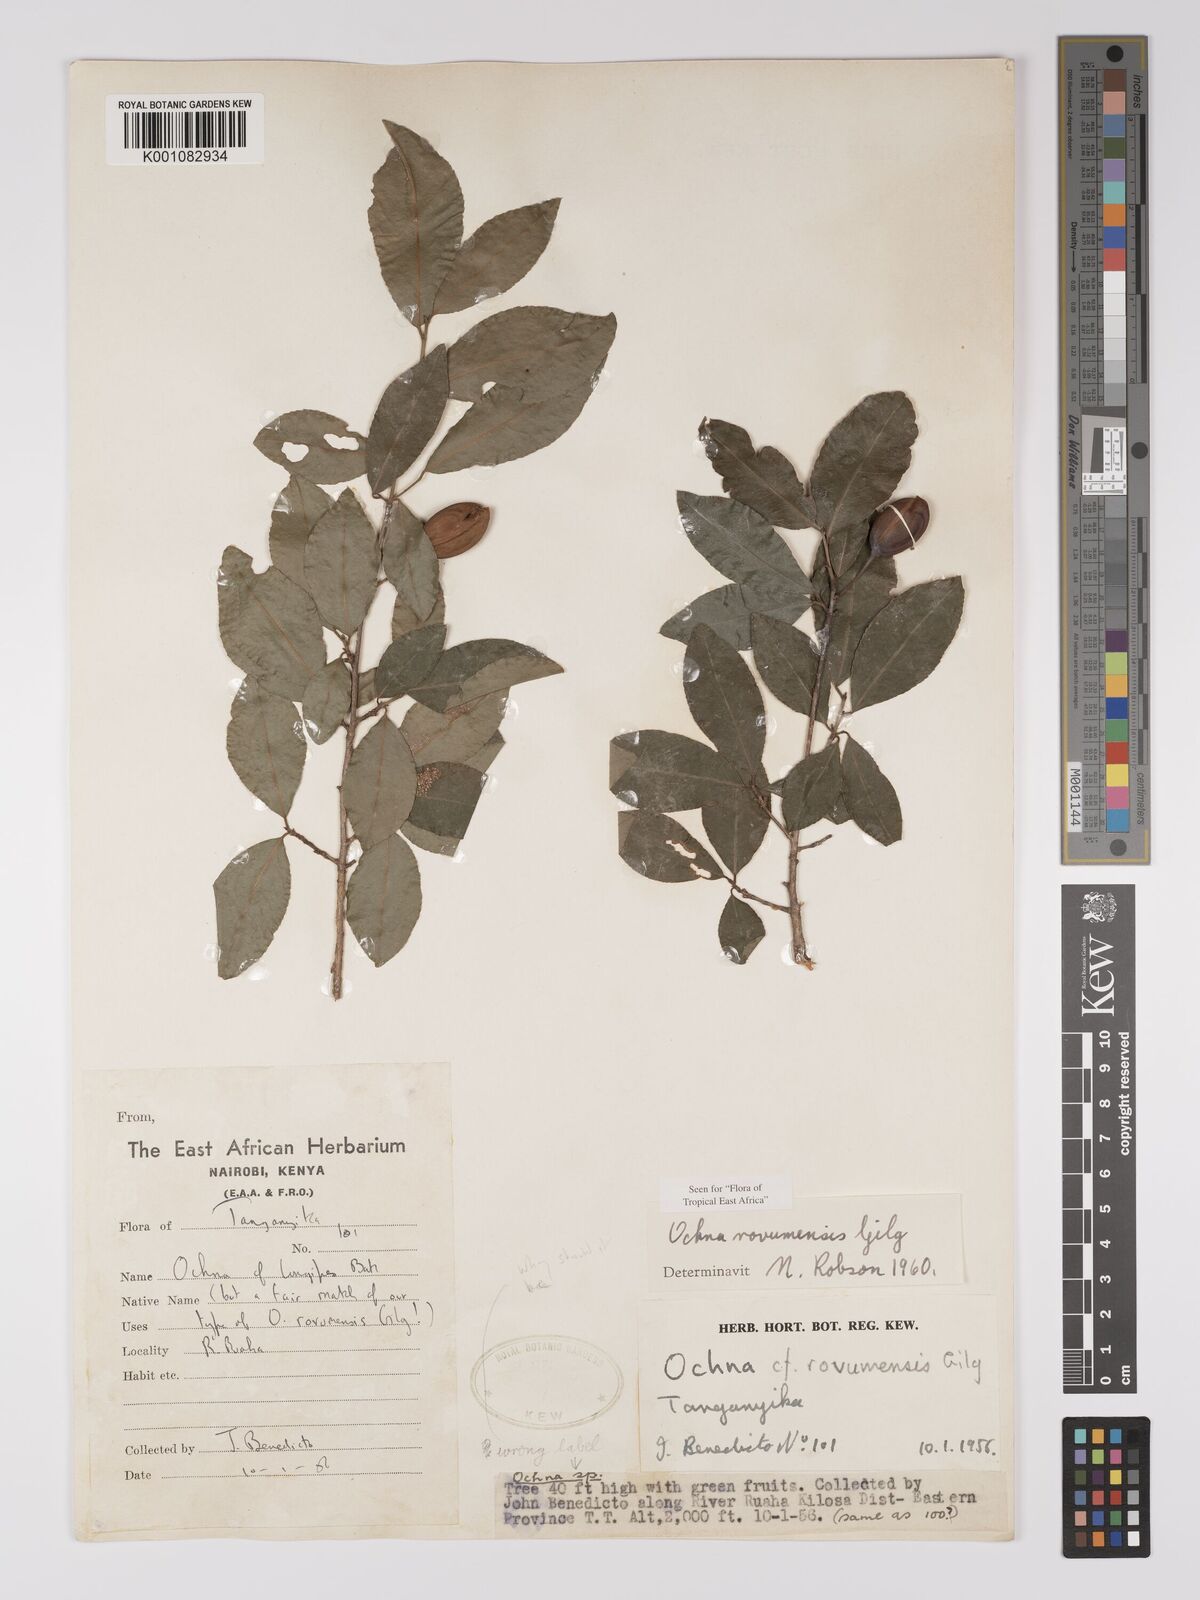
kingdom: Plantae
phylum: Tracheophyta
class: Magnoliopsida
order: Malpighiales
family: Ochnaceae
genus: Ochna
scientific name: Ochna rovumensis
